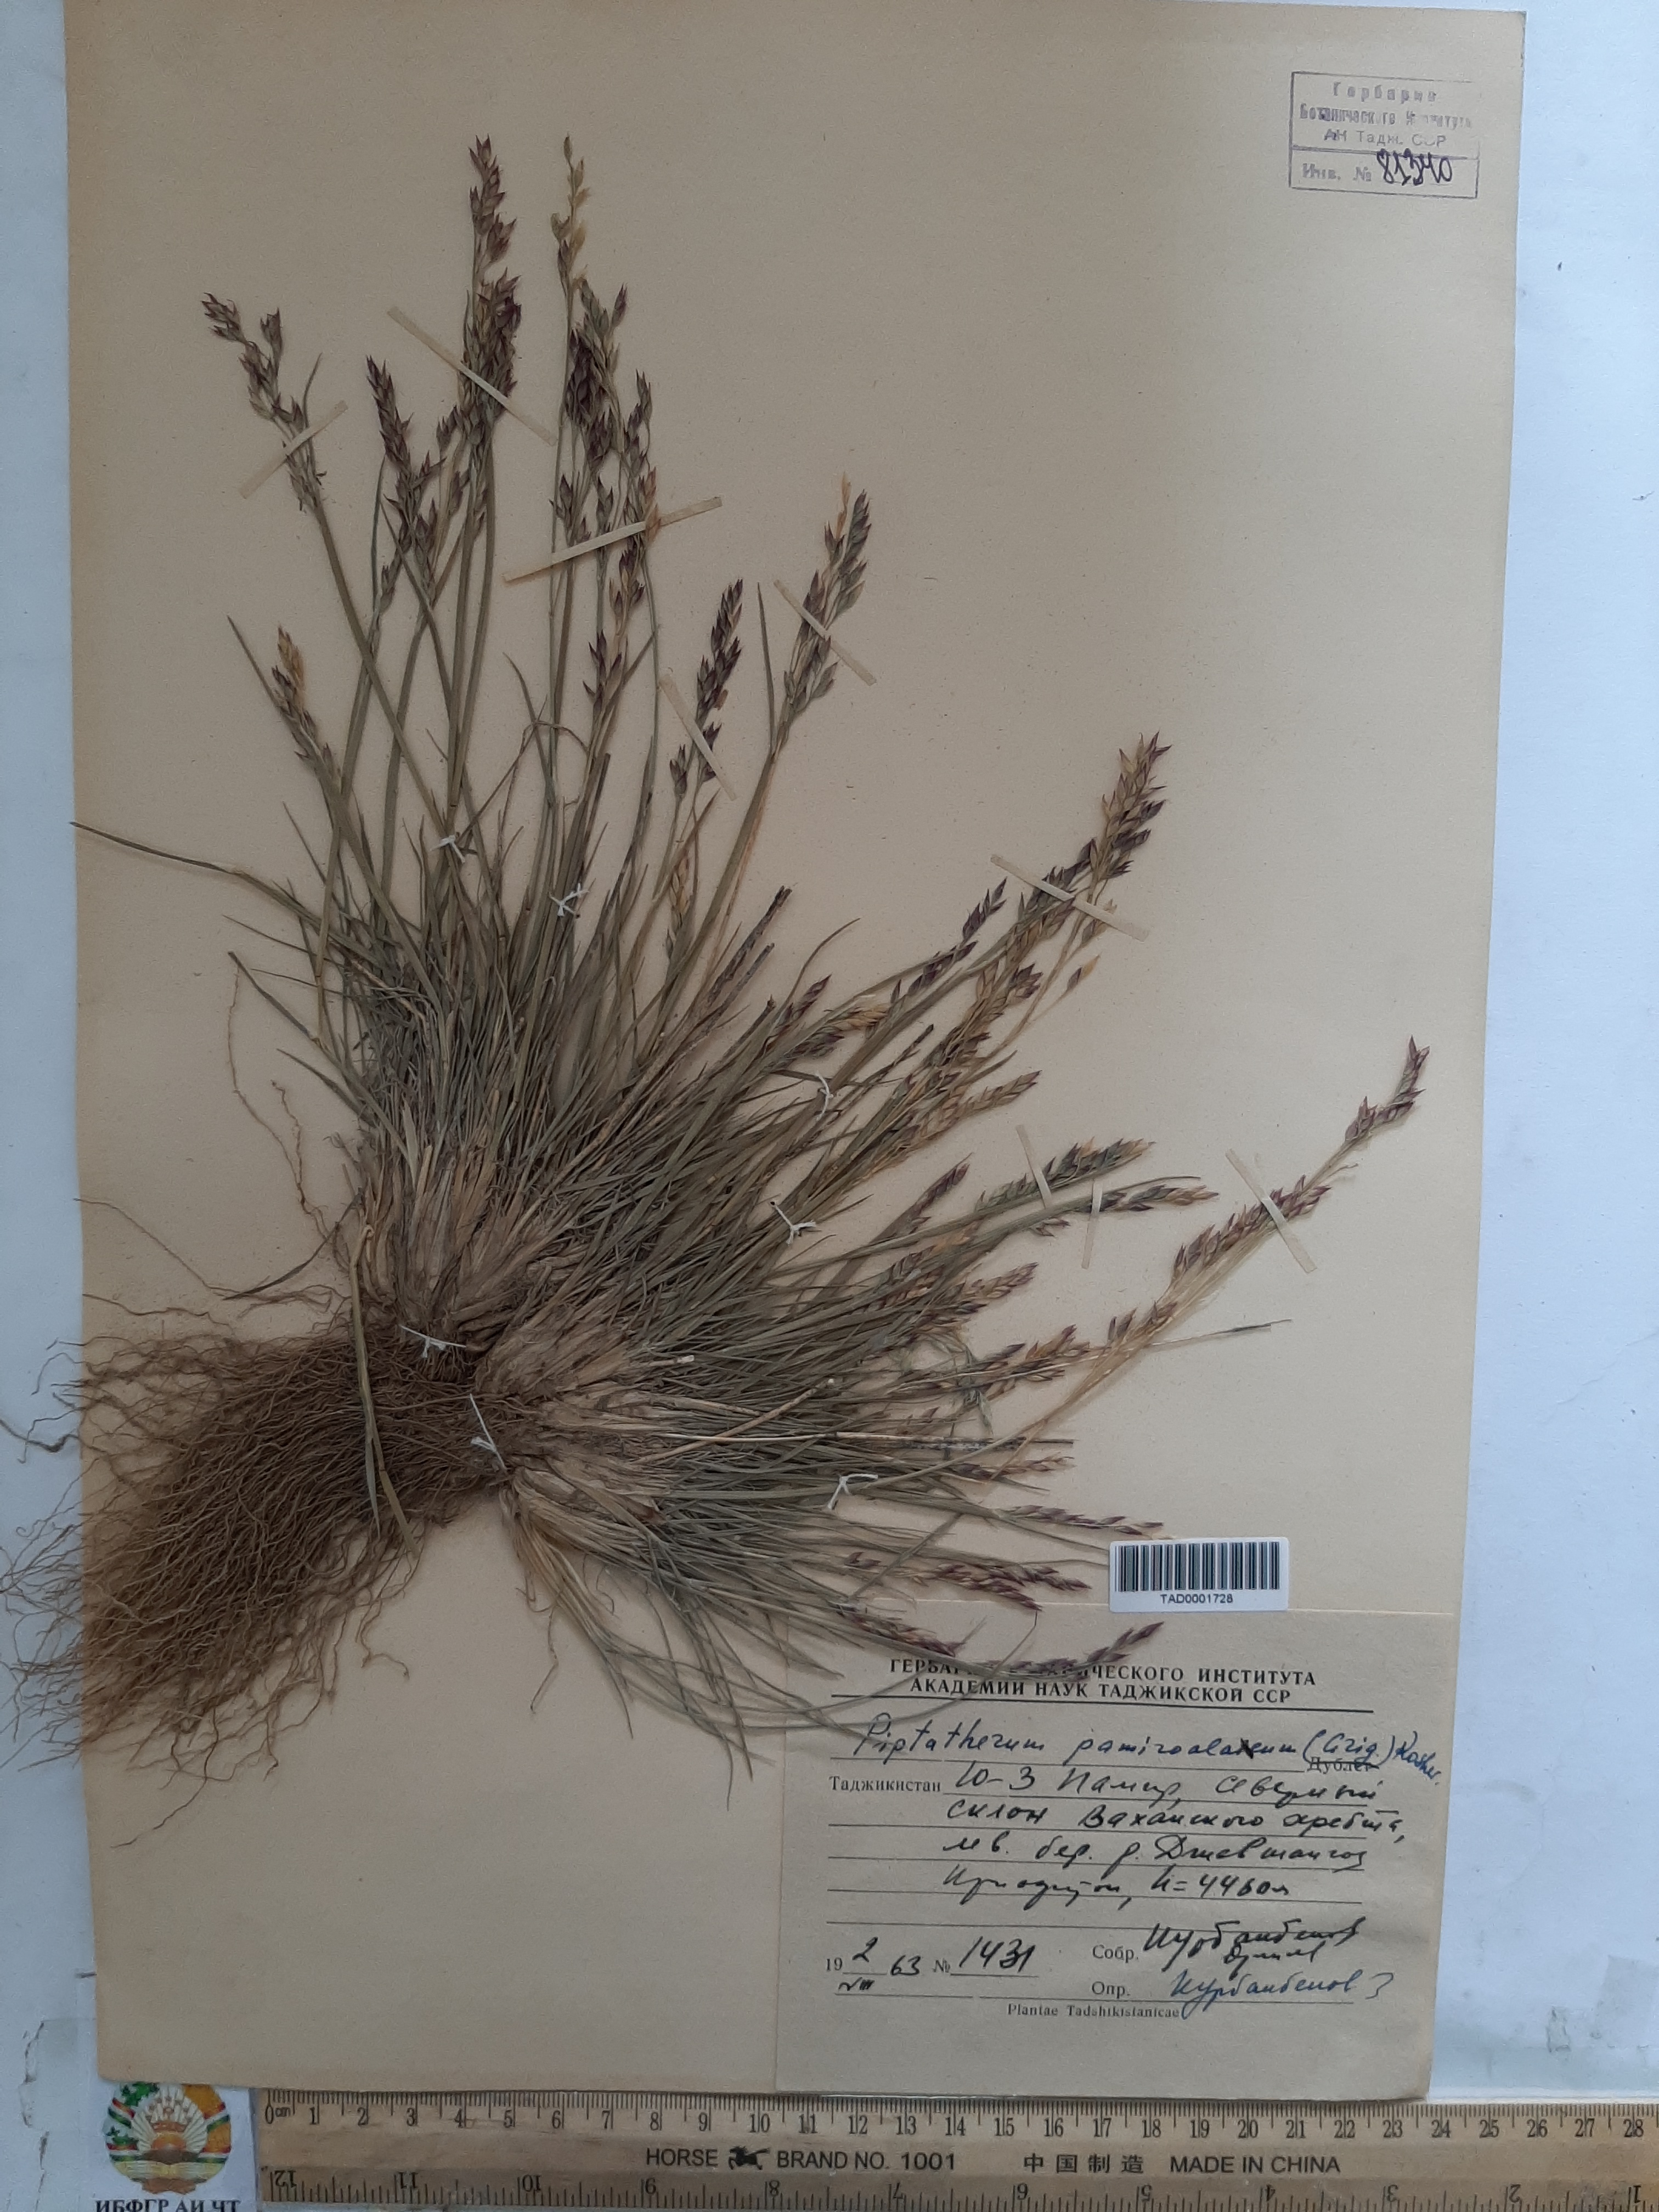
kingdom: Plantae
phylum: Tracheophyta
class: Liliopsida
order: Poales
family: Poaceae
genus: Piptatherum
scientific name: Piptatherum pamiralaicum
